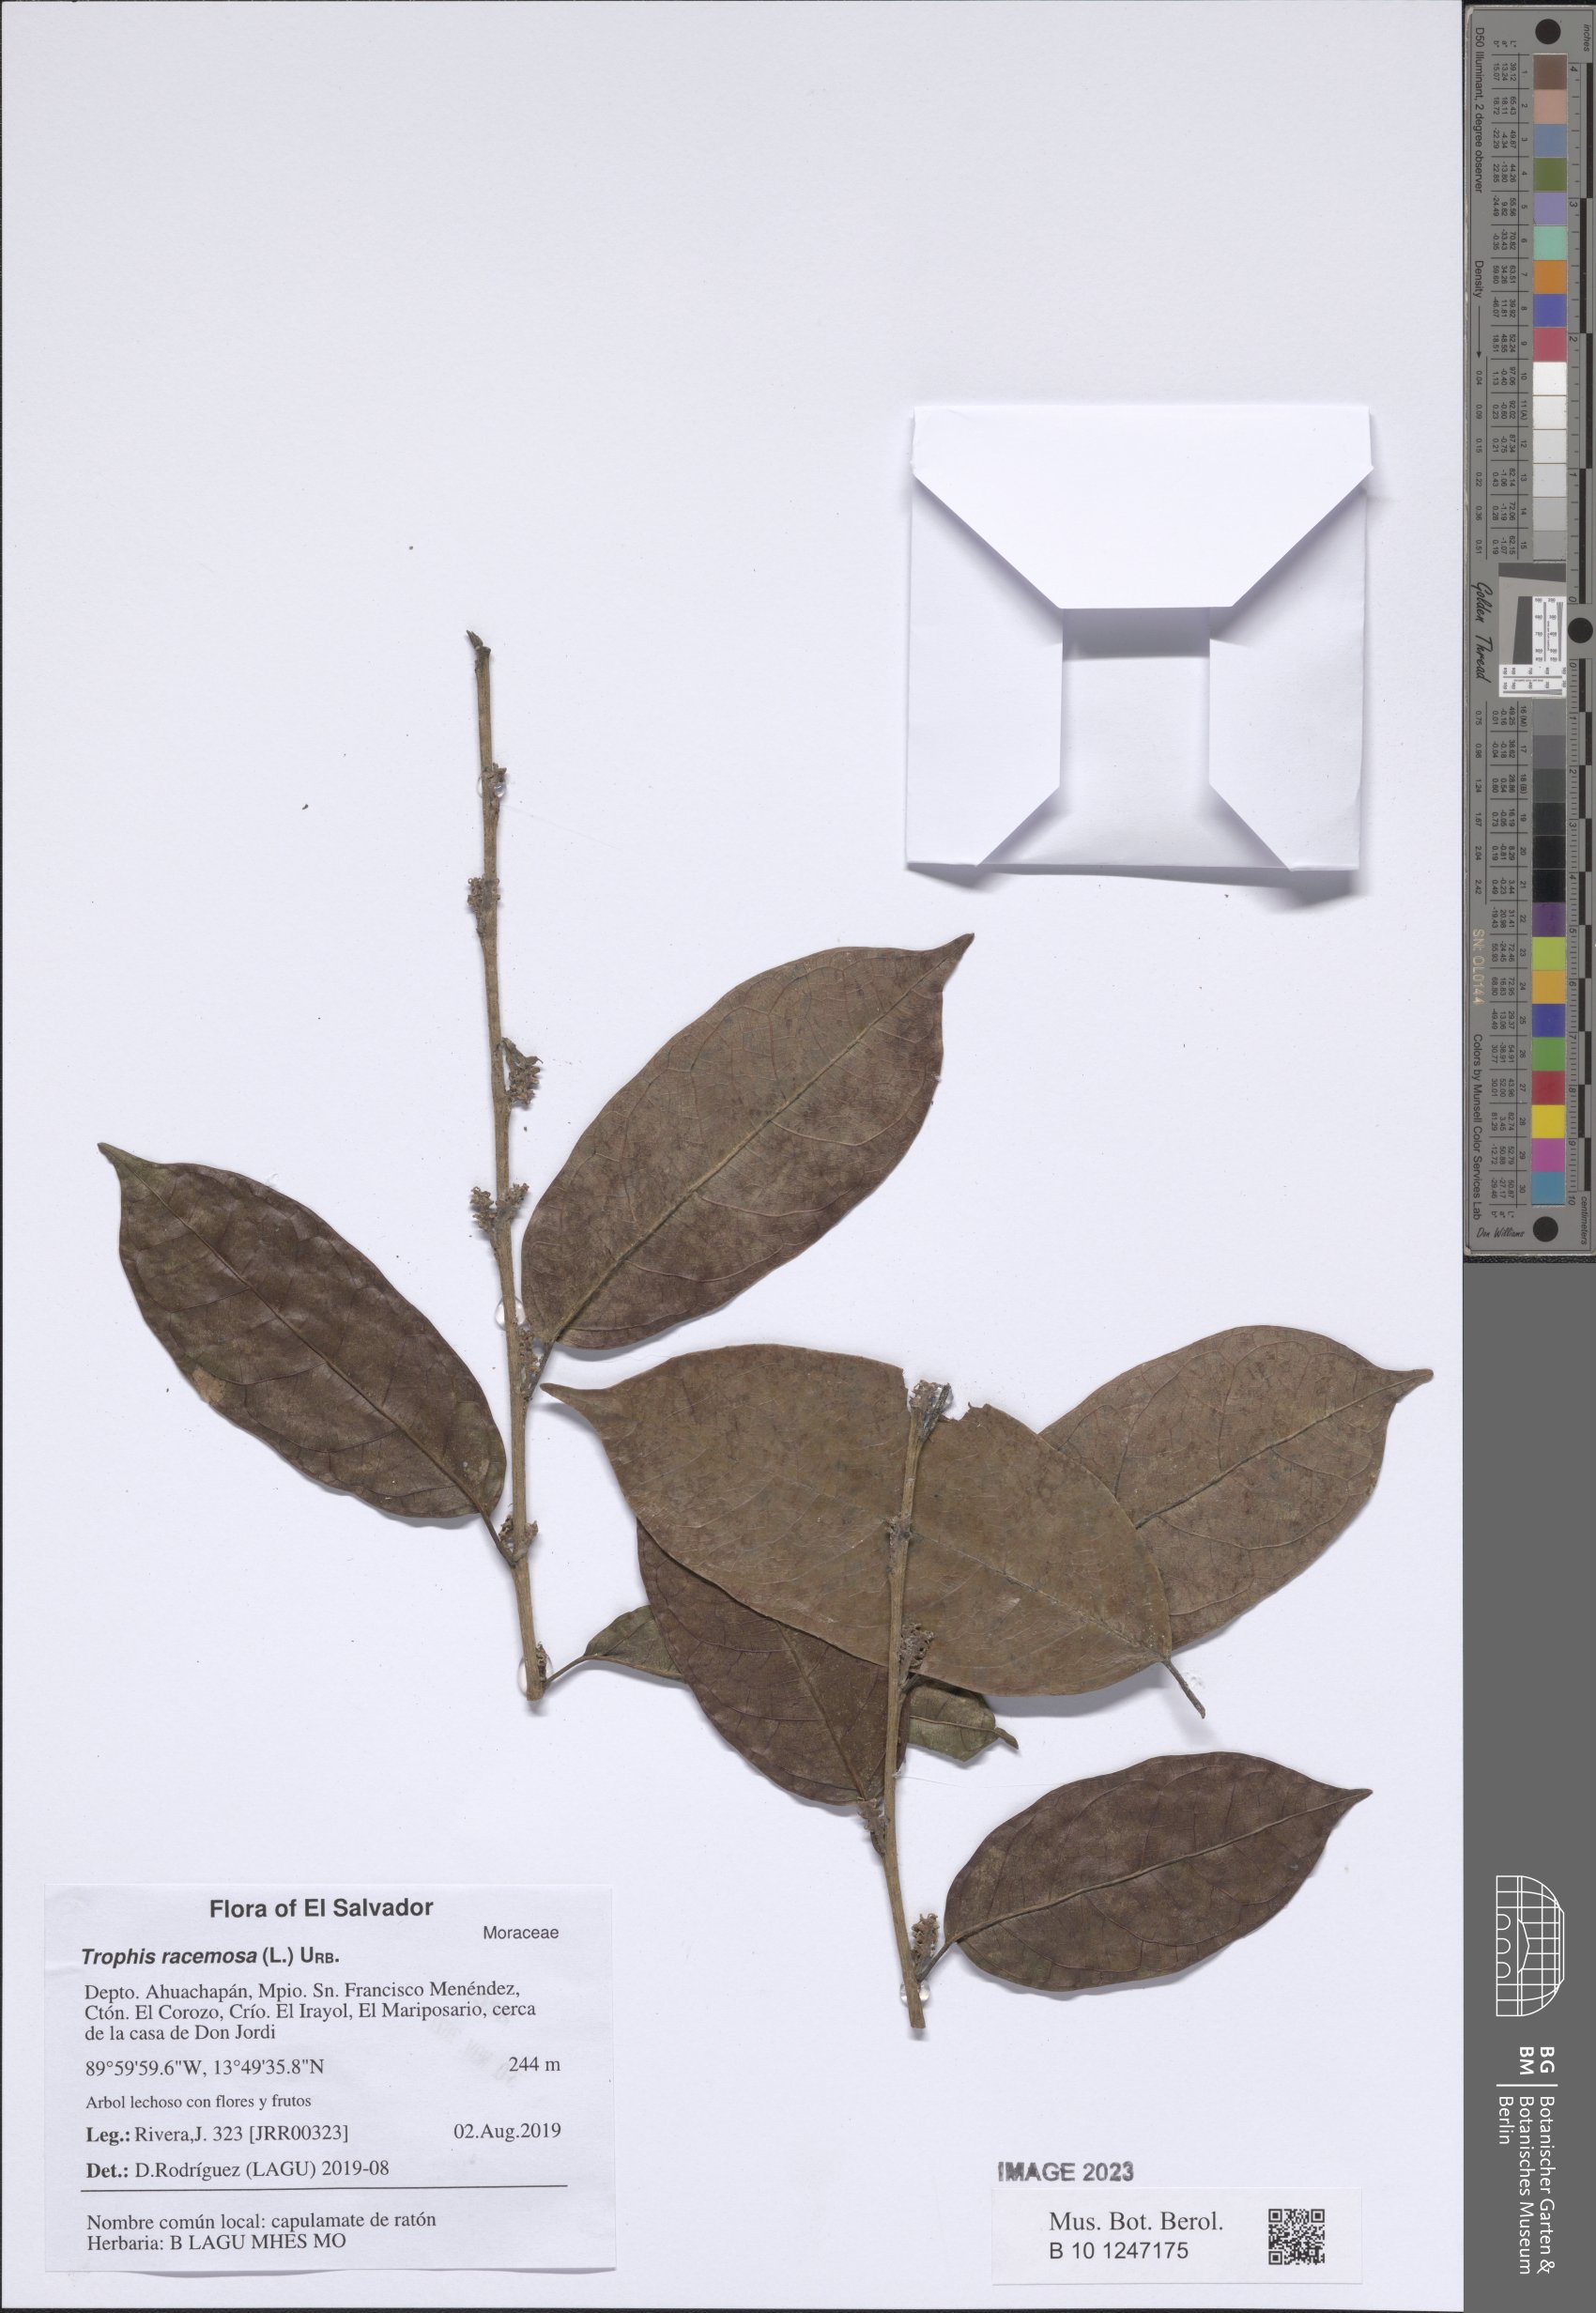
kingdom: Plantae
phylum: Tracheophyta
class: Magnoliopsida
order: Rosales
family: Moraceae
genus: Trophis
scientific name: Trophis racemosa
